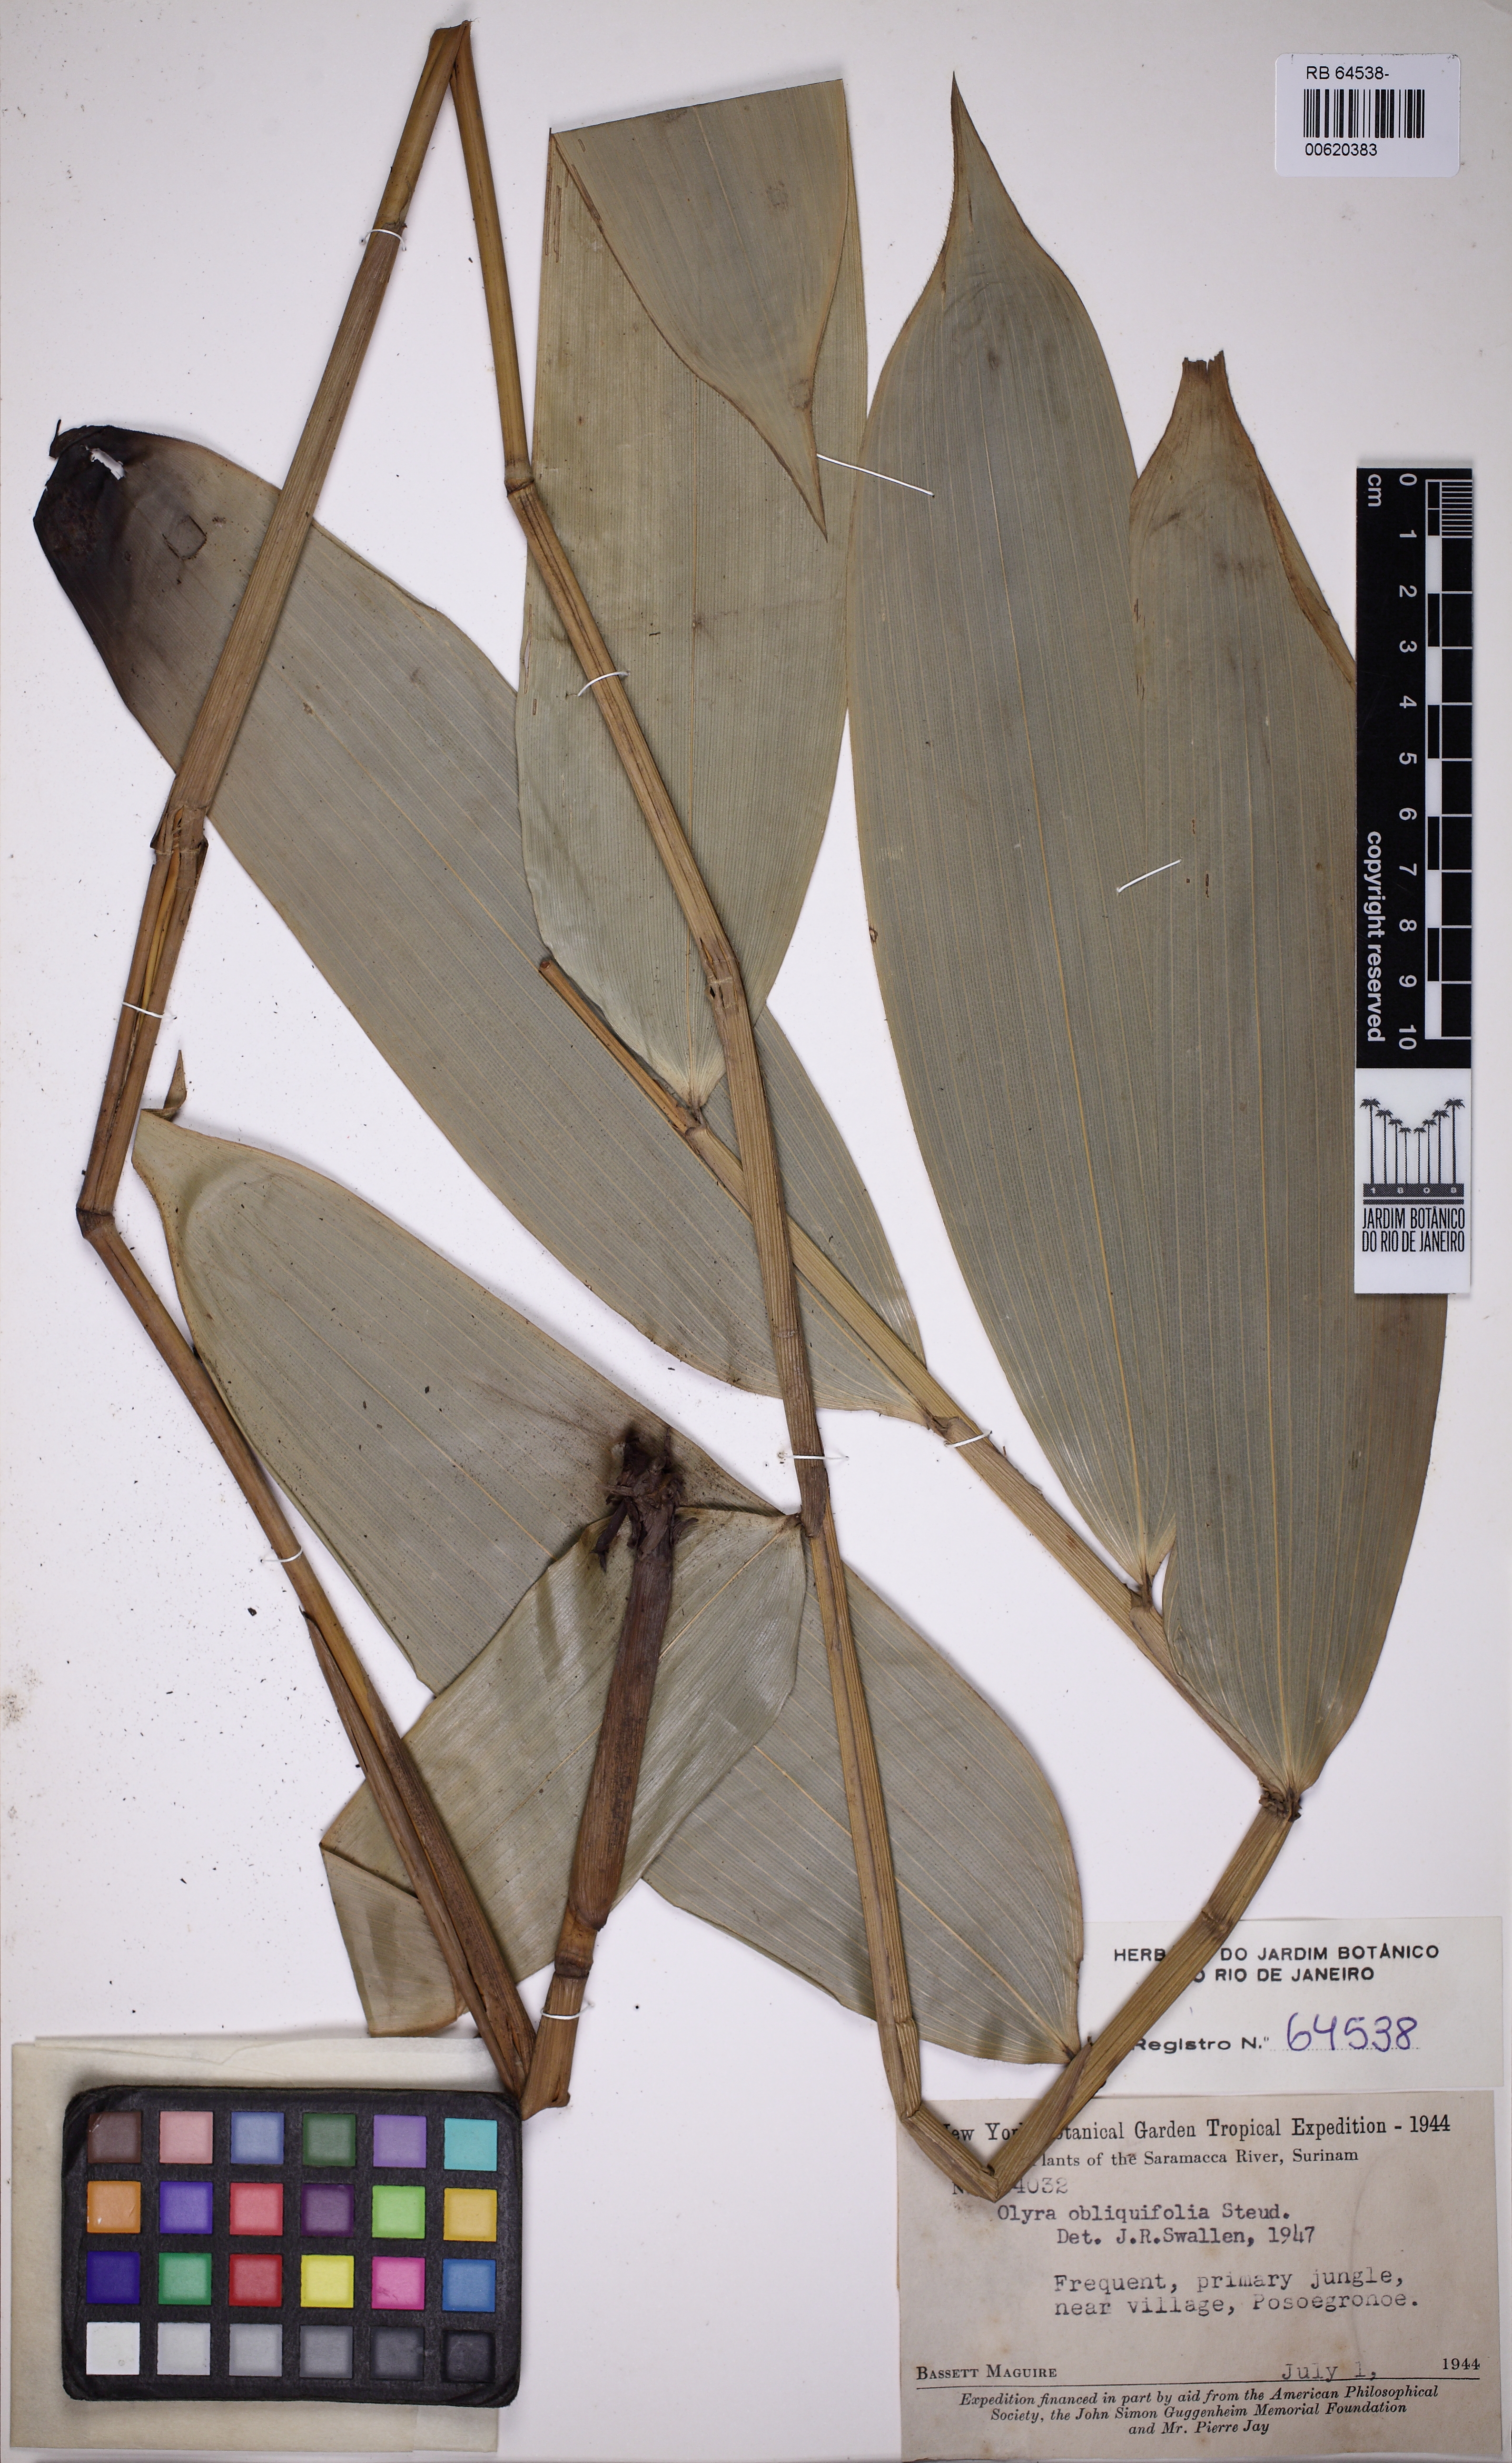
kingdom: Plantae
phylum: Tracheophyta
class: Liliopsida
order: Poales
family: Poaceae
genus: Olyra
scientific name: Olyra obliquifolia
